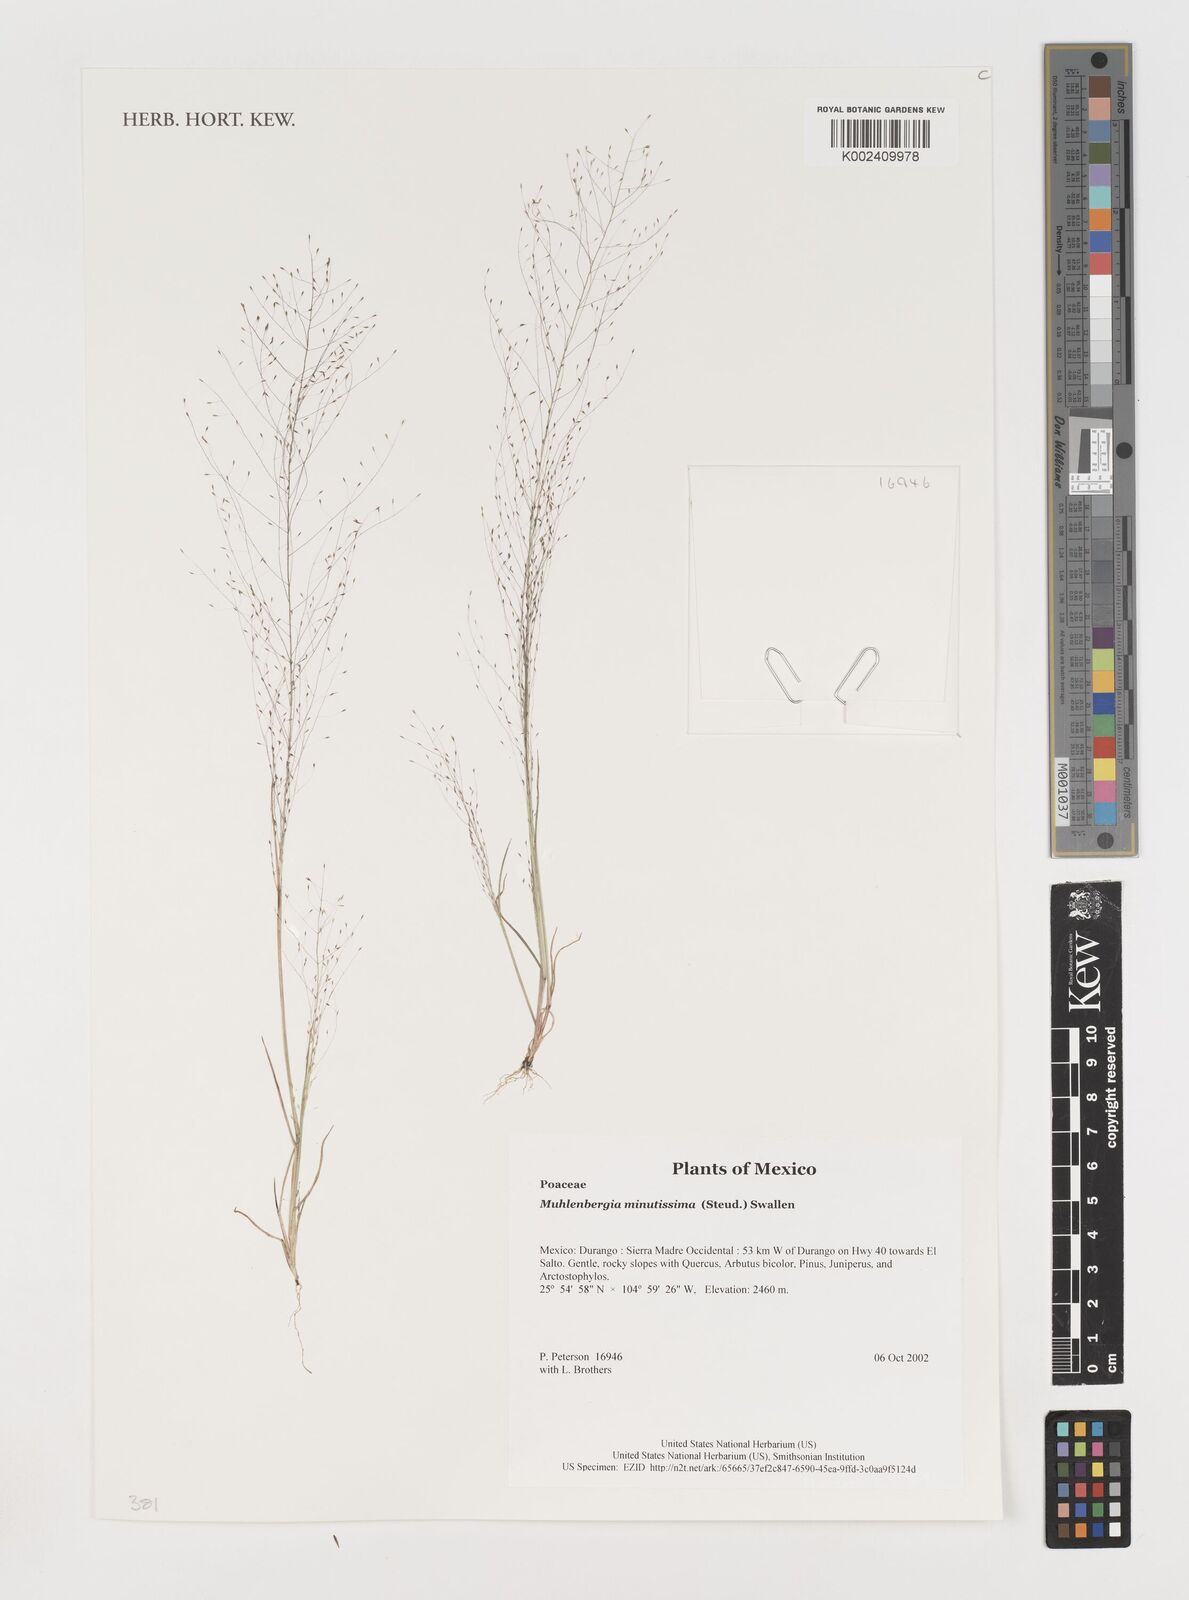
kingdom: Plantae
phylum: Tracheophyta
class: Liliopsida
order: Poales
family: Poaceae
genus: Muhlenbergia
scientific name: Muhlenbergia minutissima
